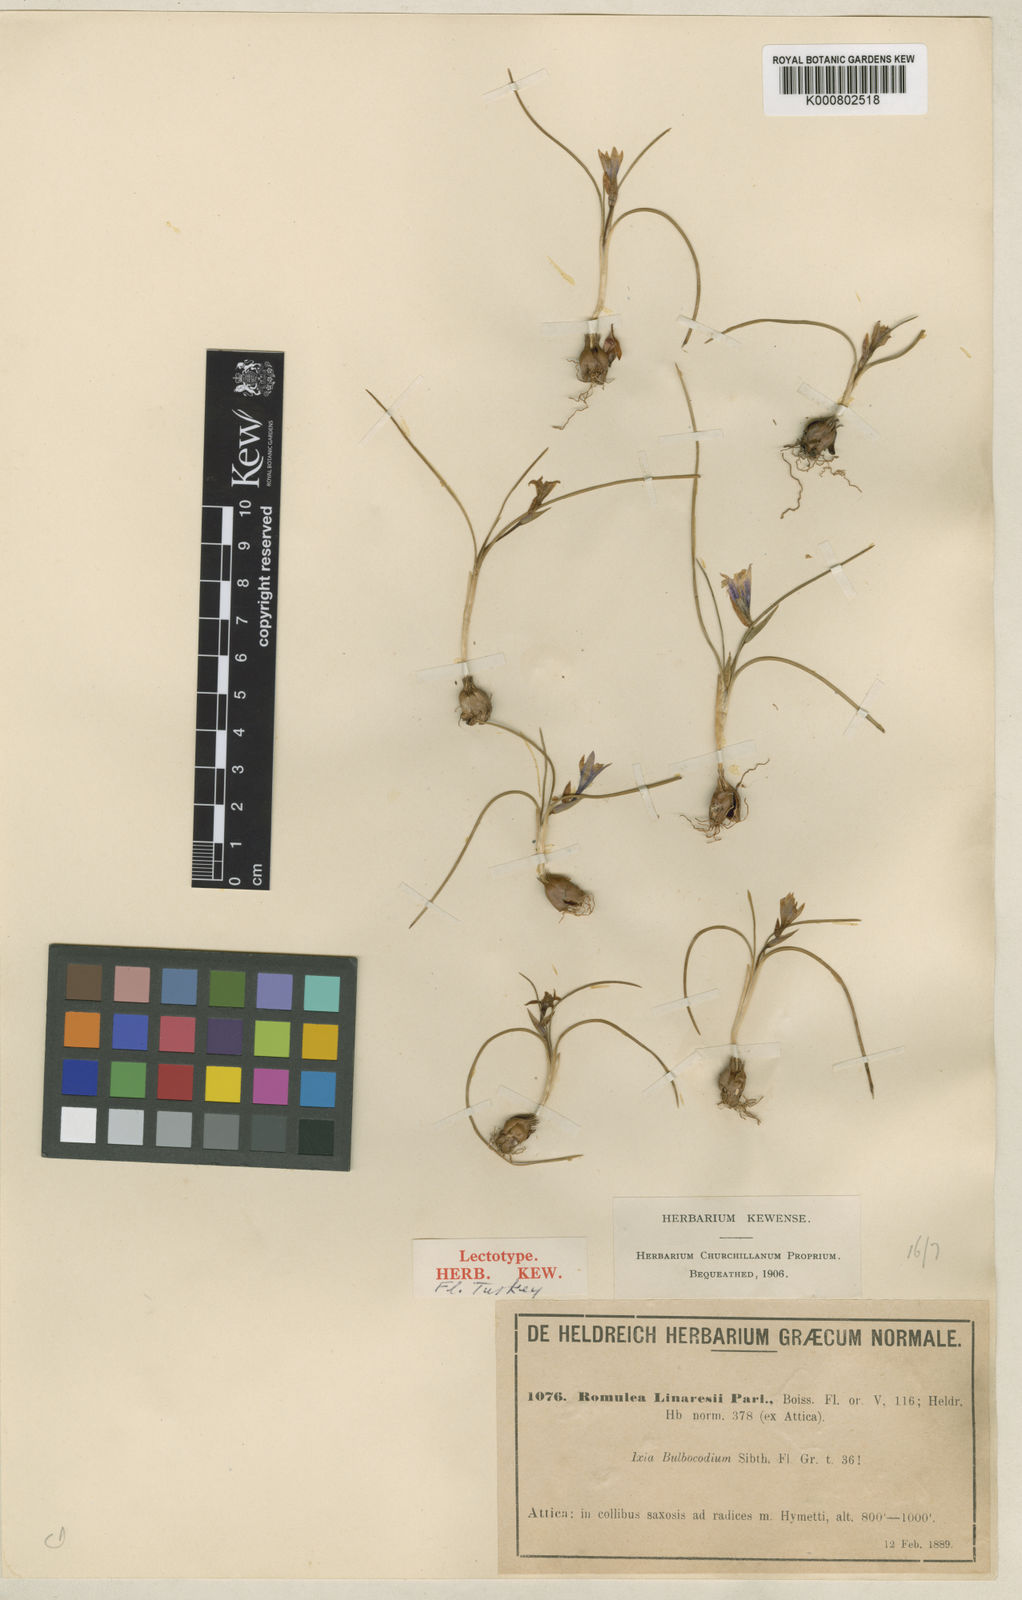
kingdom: Plantae
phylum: Tracheophyta
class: Liliopsida
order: Asparagales
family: Iridaceae
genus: Romulea
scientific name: Romulea linaresii
